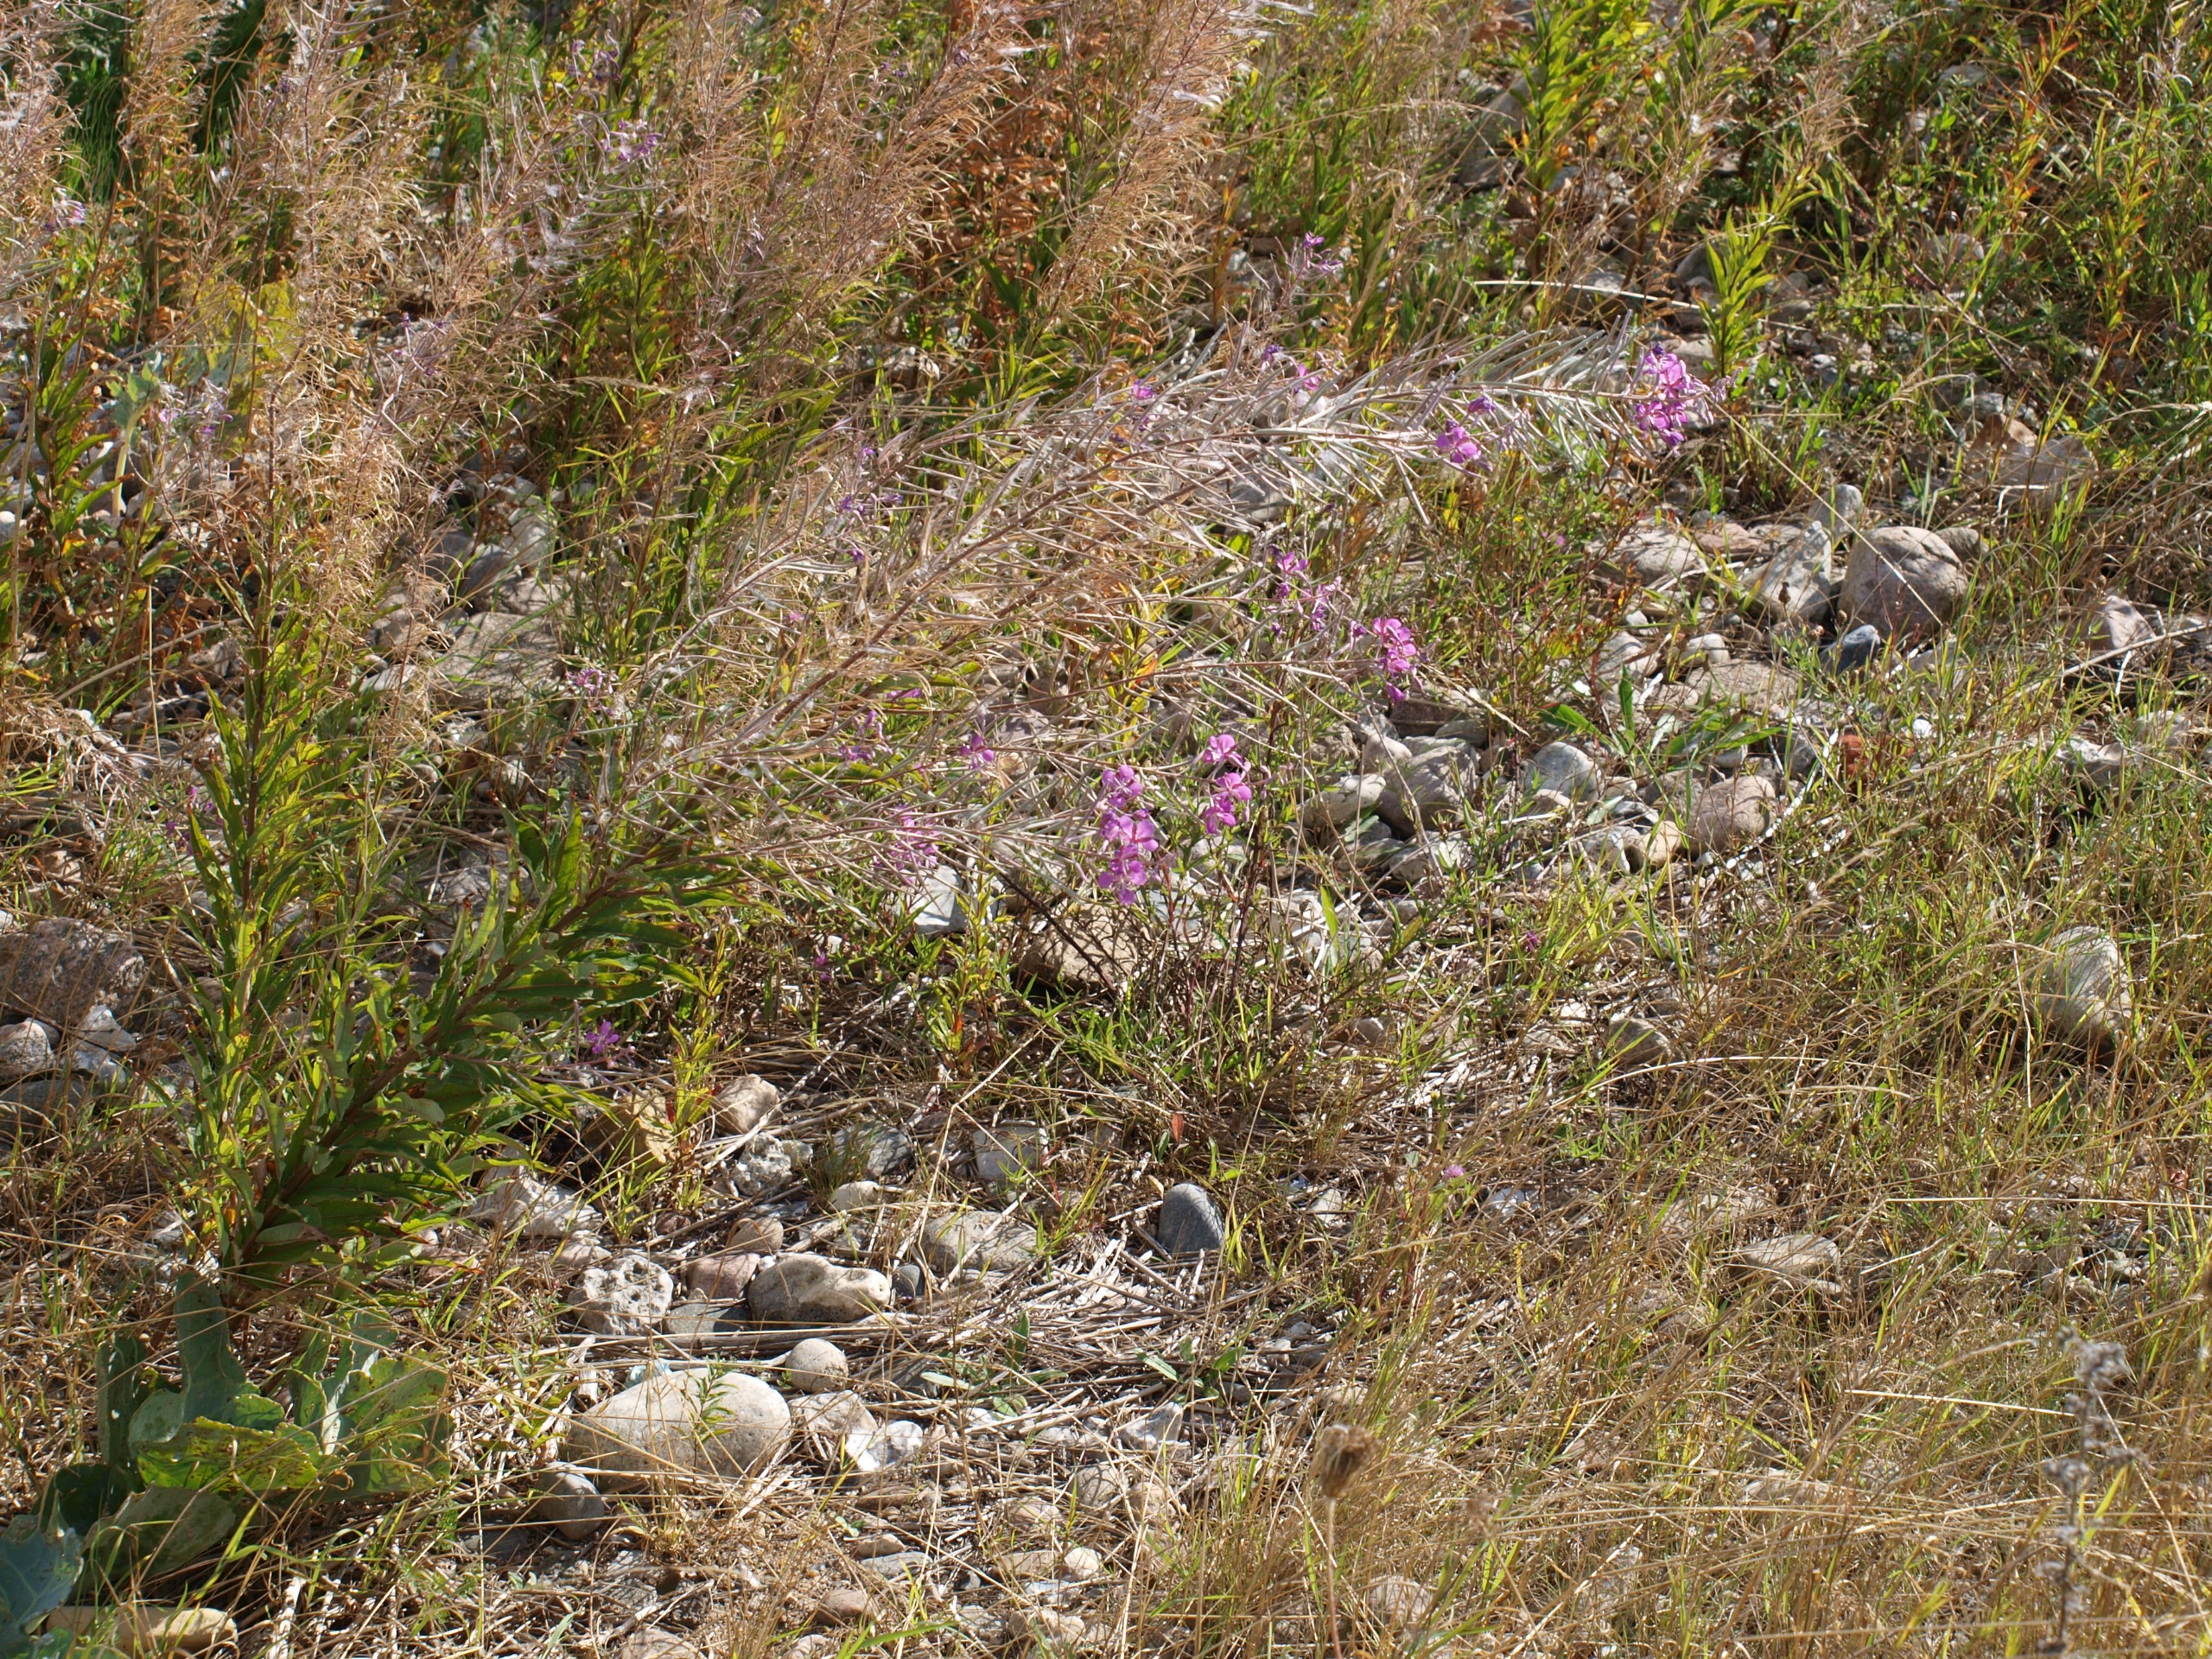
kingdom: Plantae
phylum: Tracheophyta
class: Magnoliopsida
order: Myrtales
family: Onagraceae
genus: Chamaenerion
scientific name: Chamaenerion angustifolium
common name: Gederams
